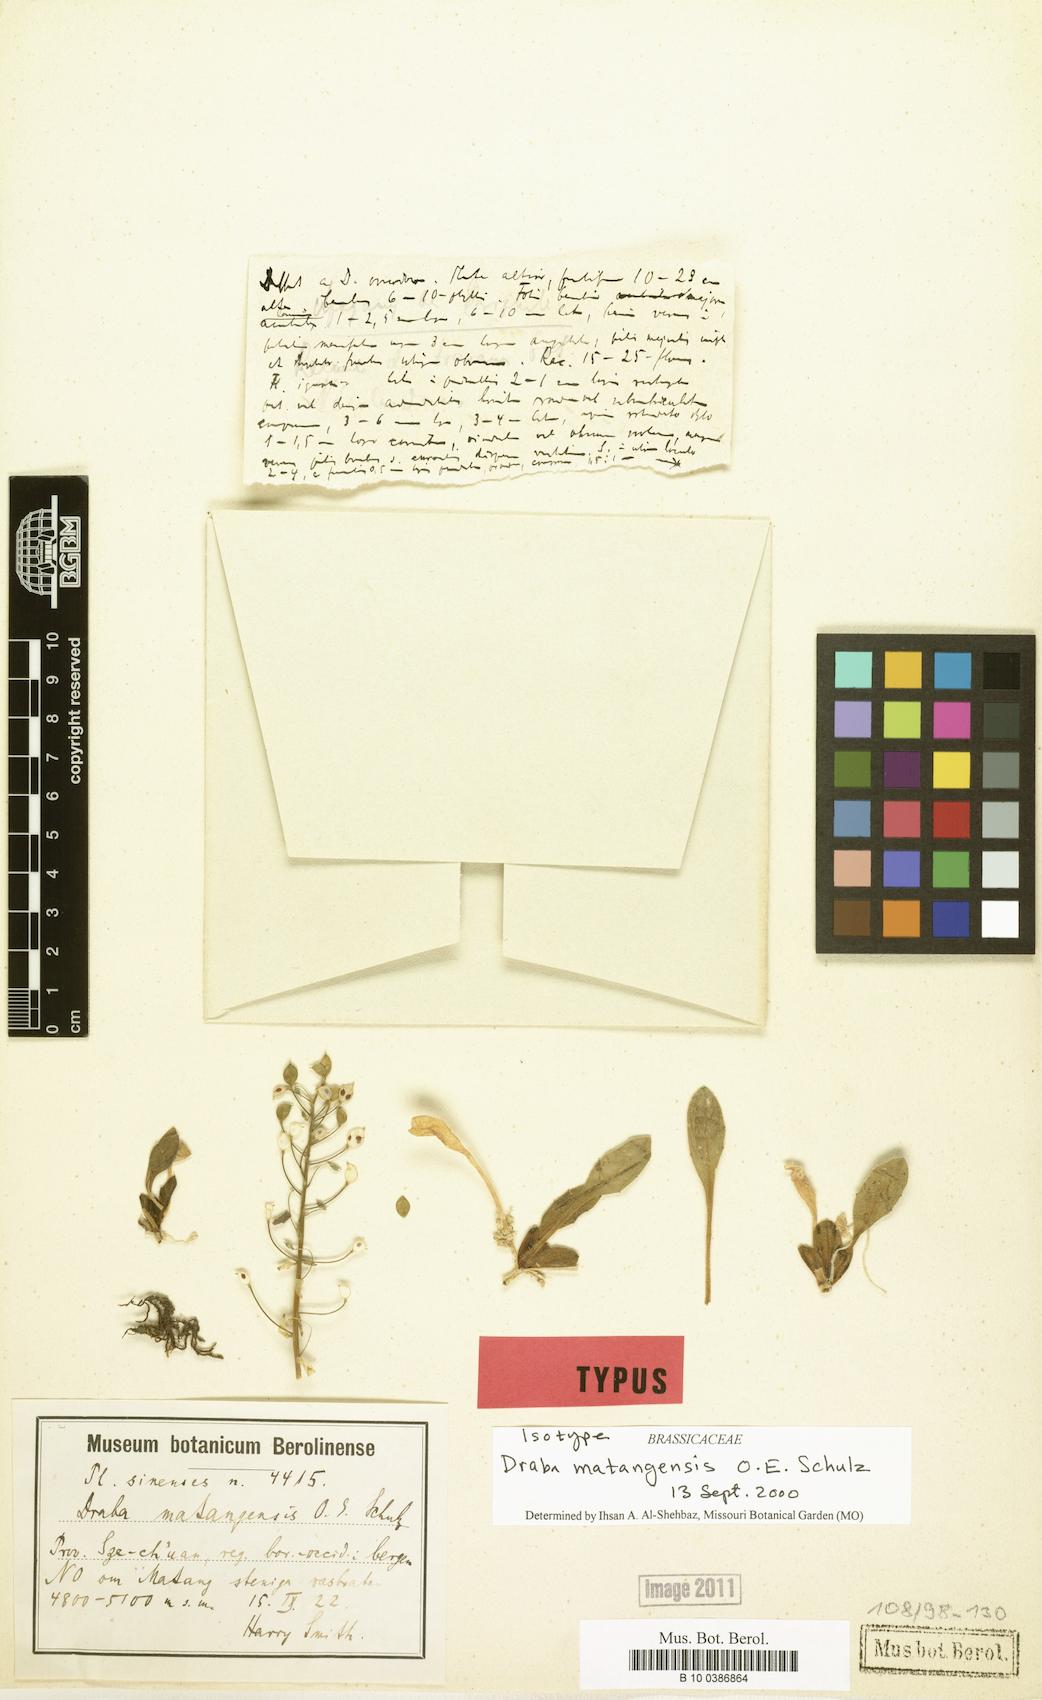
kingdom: Plantae
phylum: Tracheophyta
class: Magnoliopsida
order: Brassicales
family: Brassicaceae
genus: Draba
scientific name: Draba matangensis
